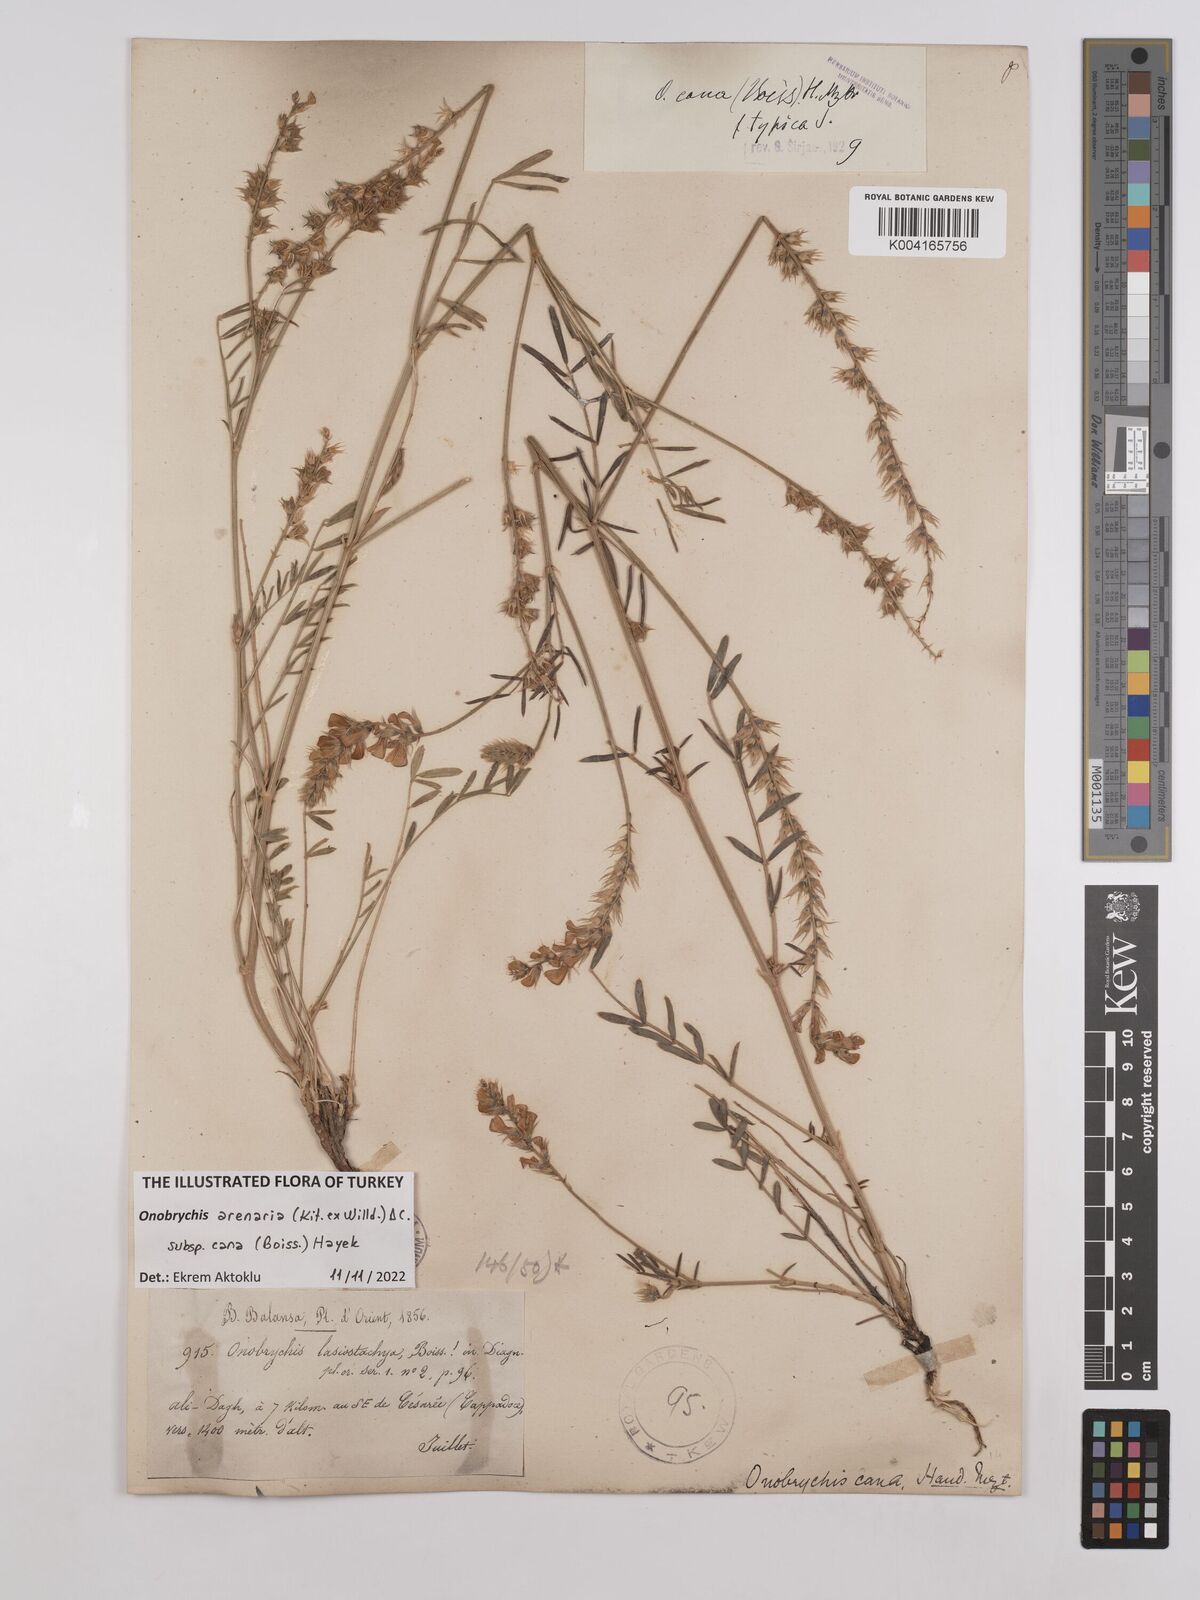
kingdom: Plantae
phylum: Tracheophyta
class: Magnoliopsida
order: Fabales
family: Fabaceae
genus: Onobrychis
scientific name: Onobrychis arenaria
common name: Sand esparcet
